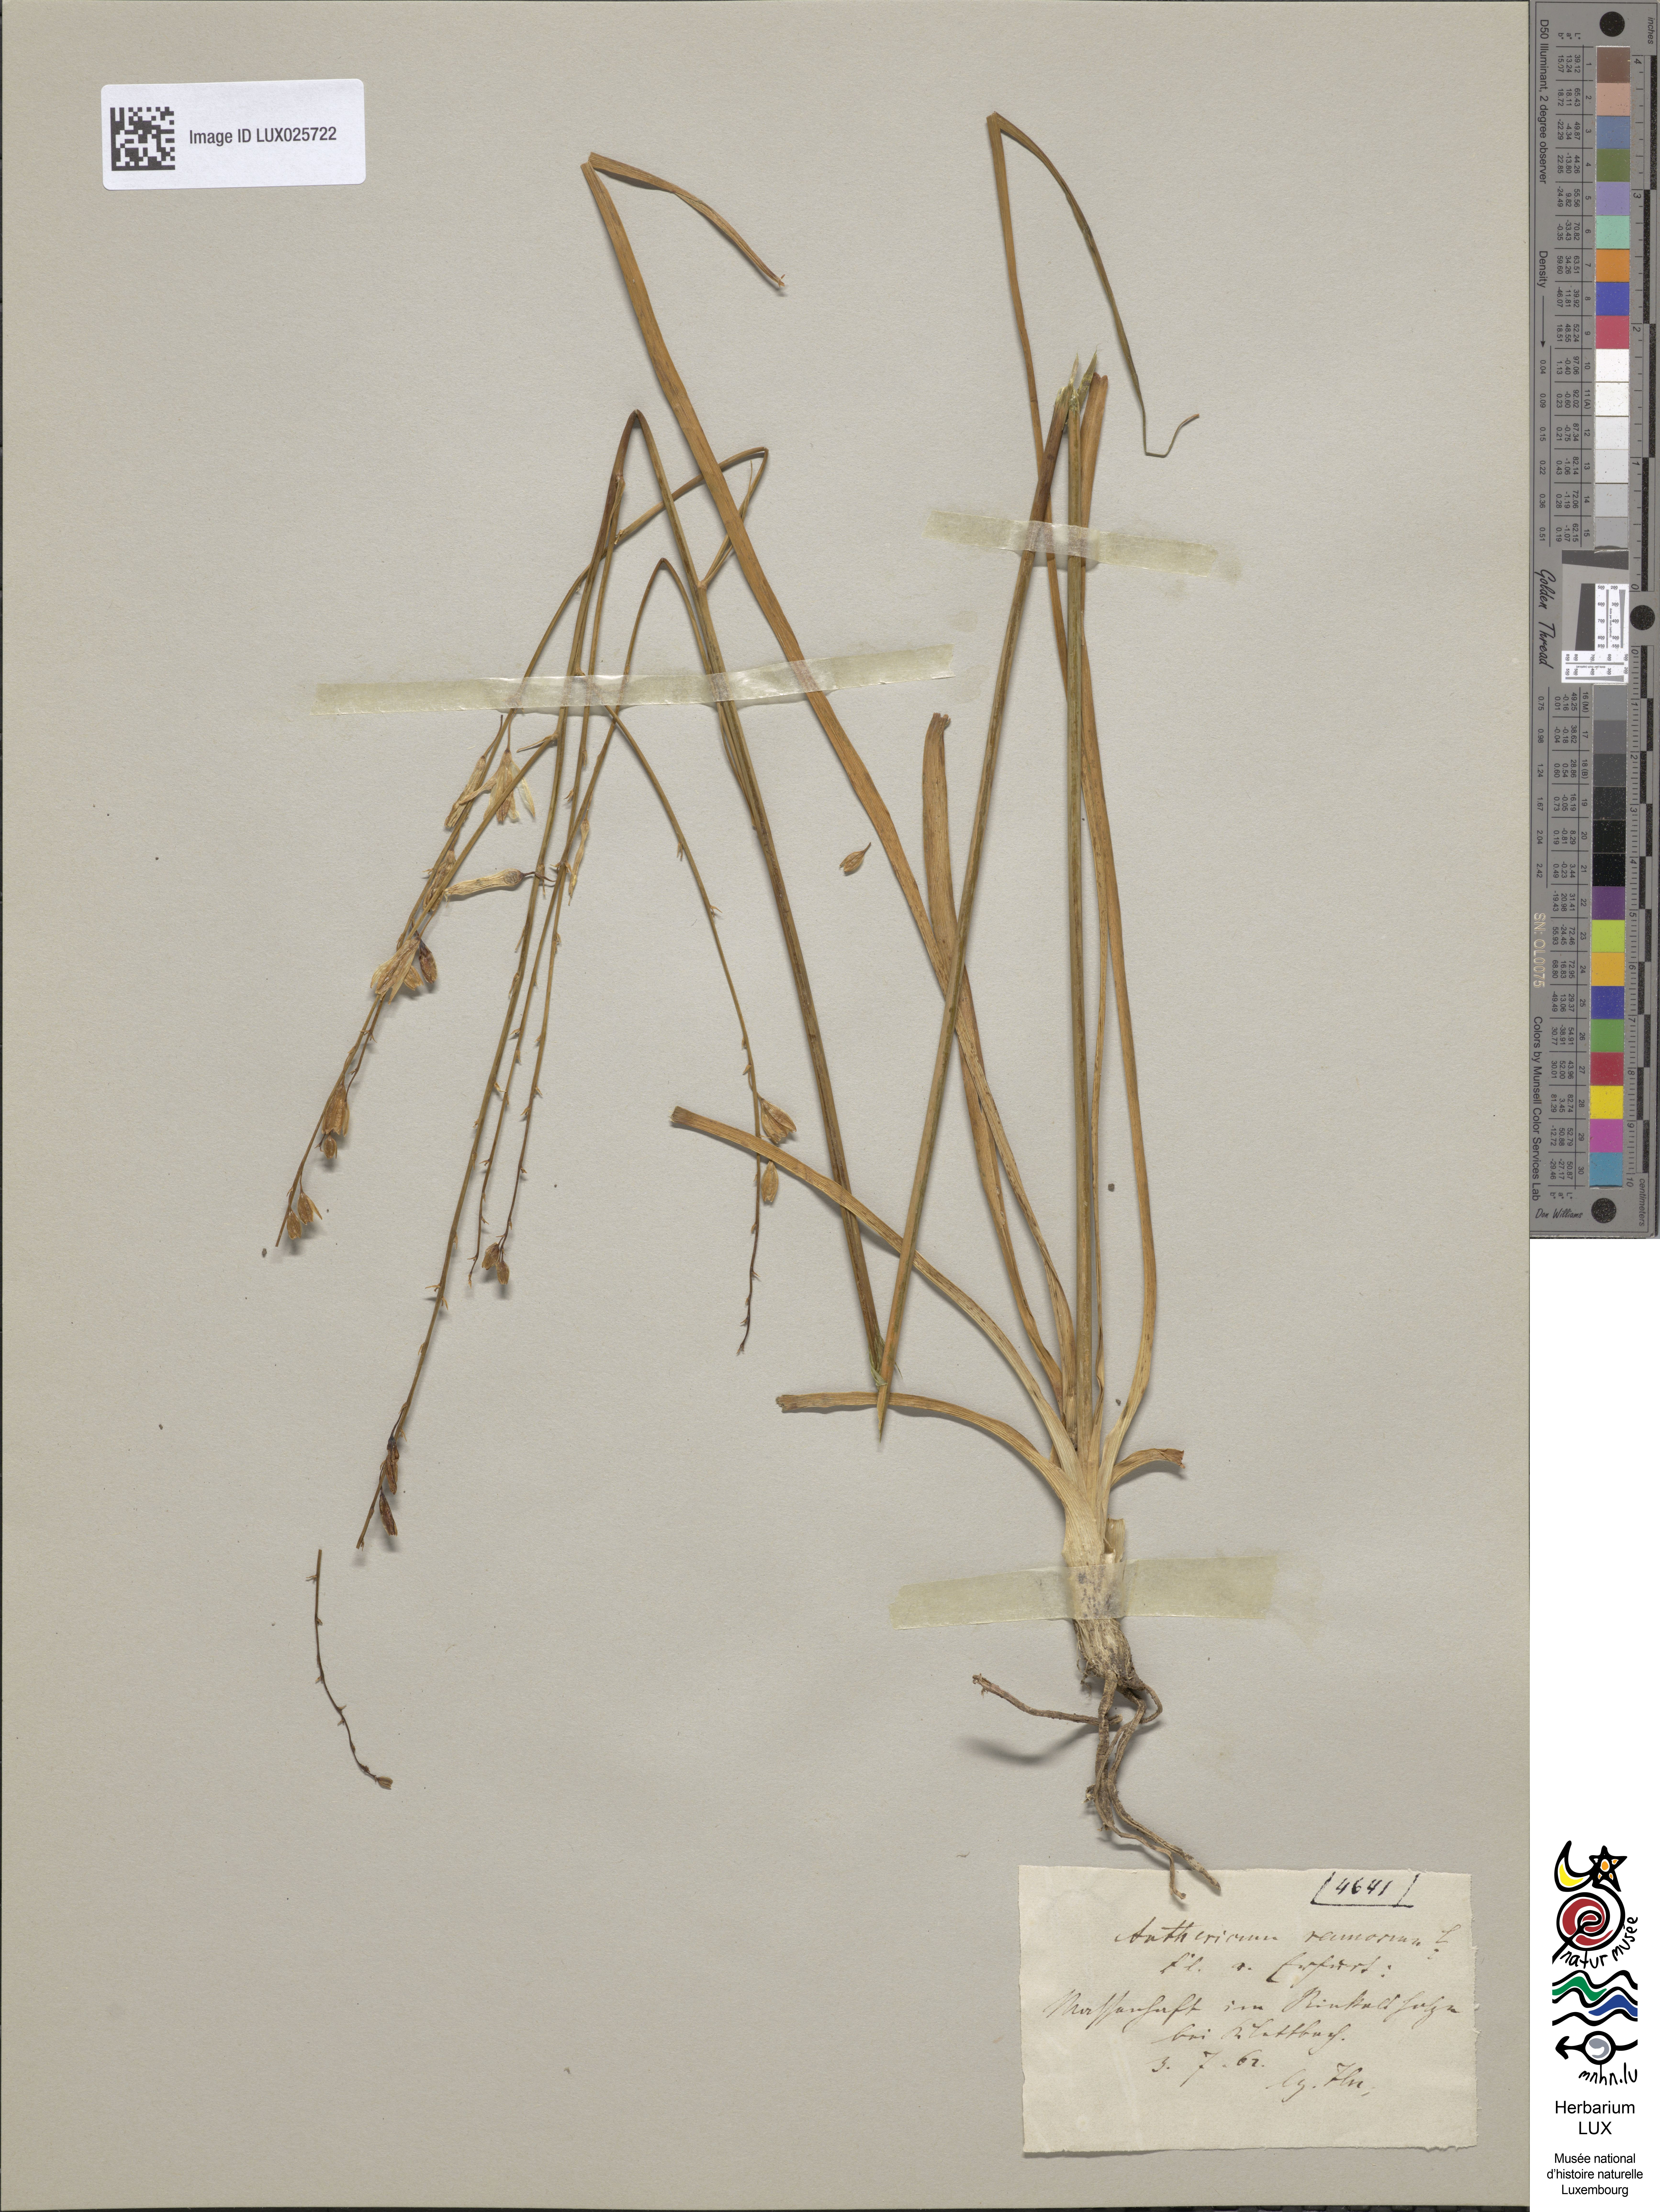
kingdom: Plantae
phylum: Tracheophyta
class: Liliopsida
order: Asparagales
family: Asparagaceae
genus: Anthericum
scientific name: Anthericum ramosum
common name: Branched st. bernard's-lily
